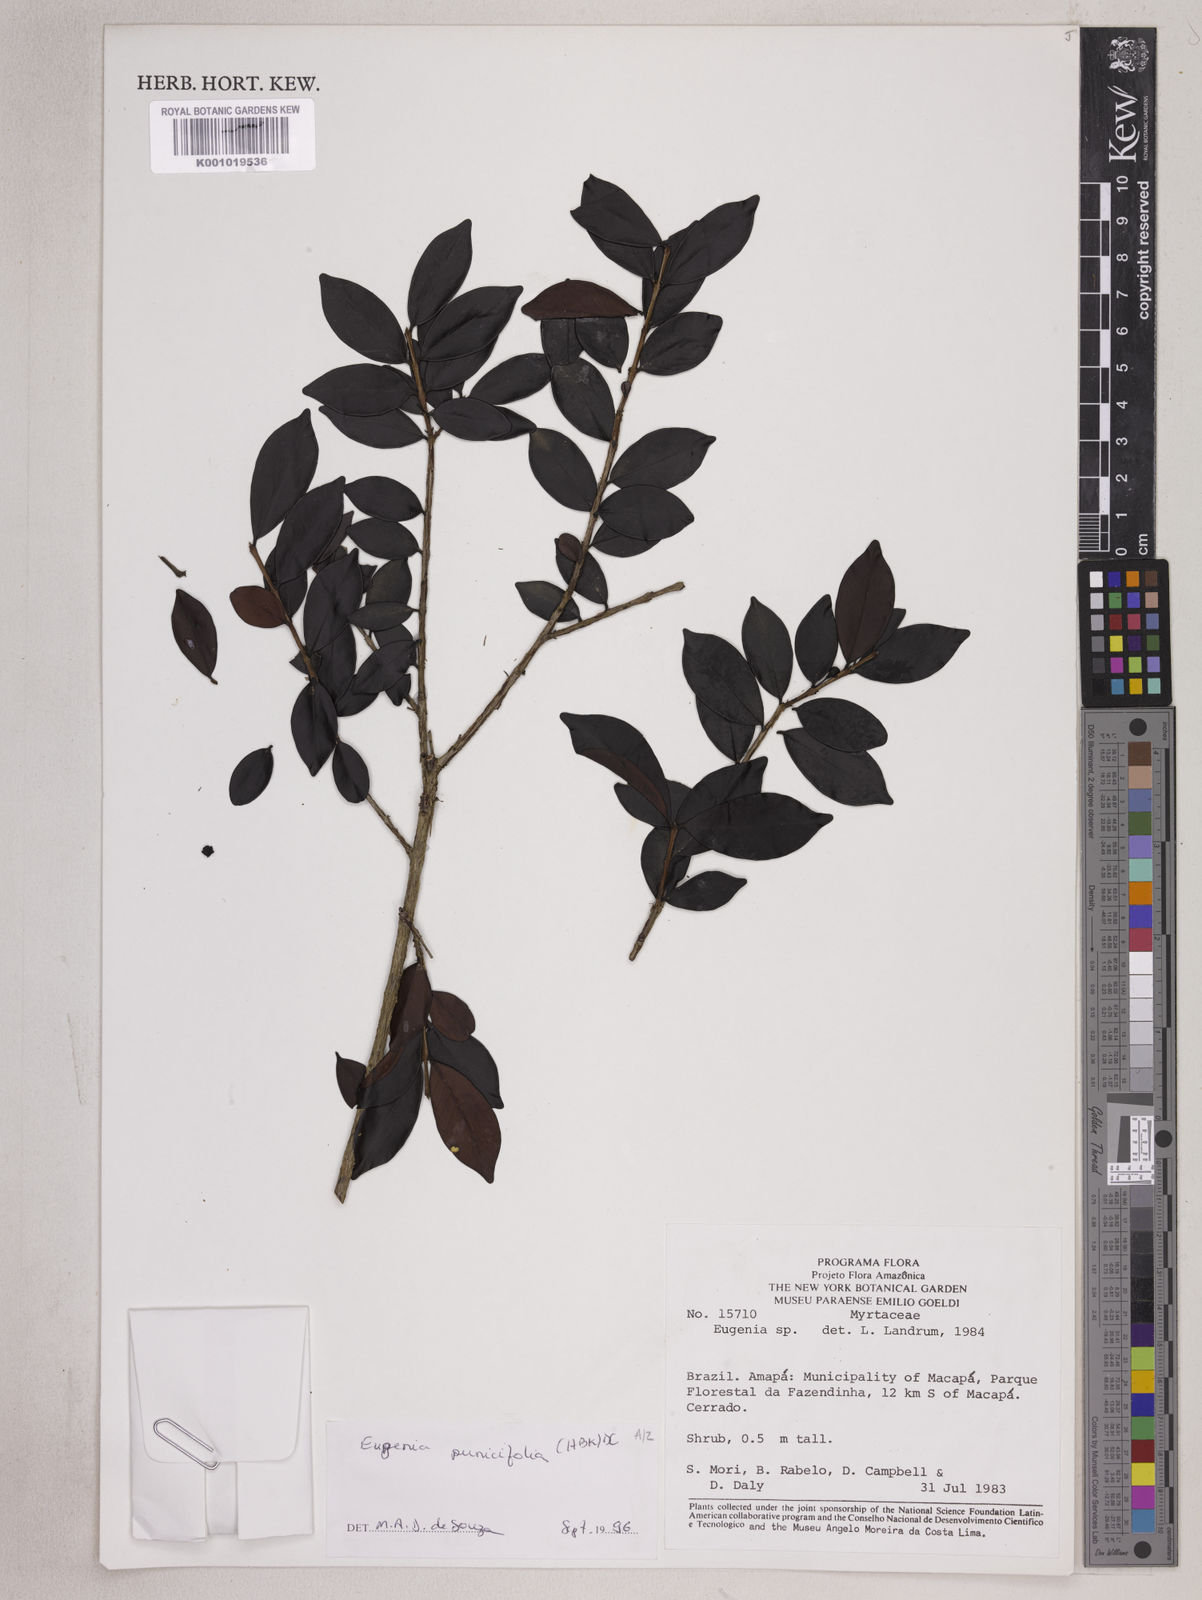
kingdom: Plantae
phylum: Tracheophyta
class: Magnoliopsida
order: Myrtales
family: Myrtaceae
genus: Eugenia
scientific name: Eugenia punicifolia
